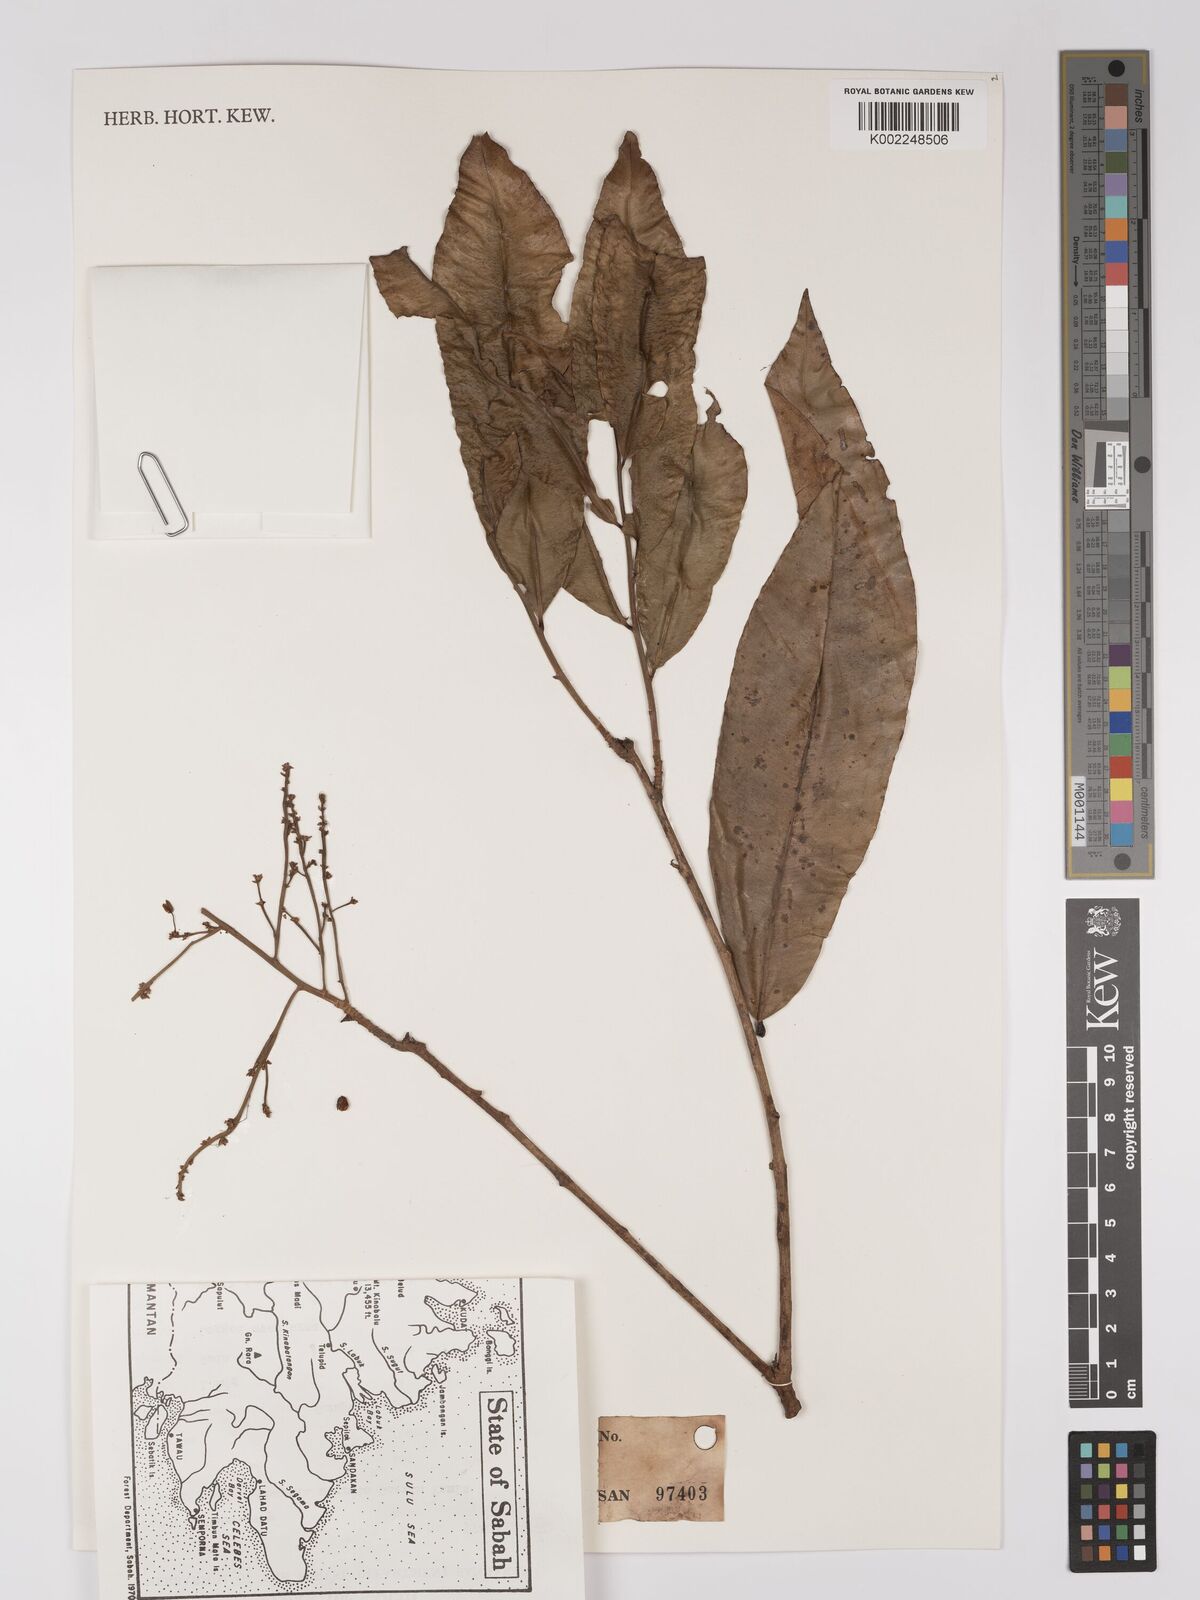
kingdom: Plantae
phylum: Tracheophyta
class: Magnoliopsida
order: Malpighiales
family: Ochnaceae
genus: Gomphia
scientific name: Gomphia serrata
